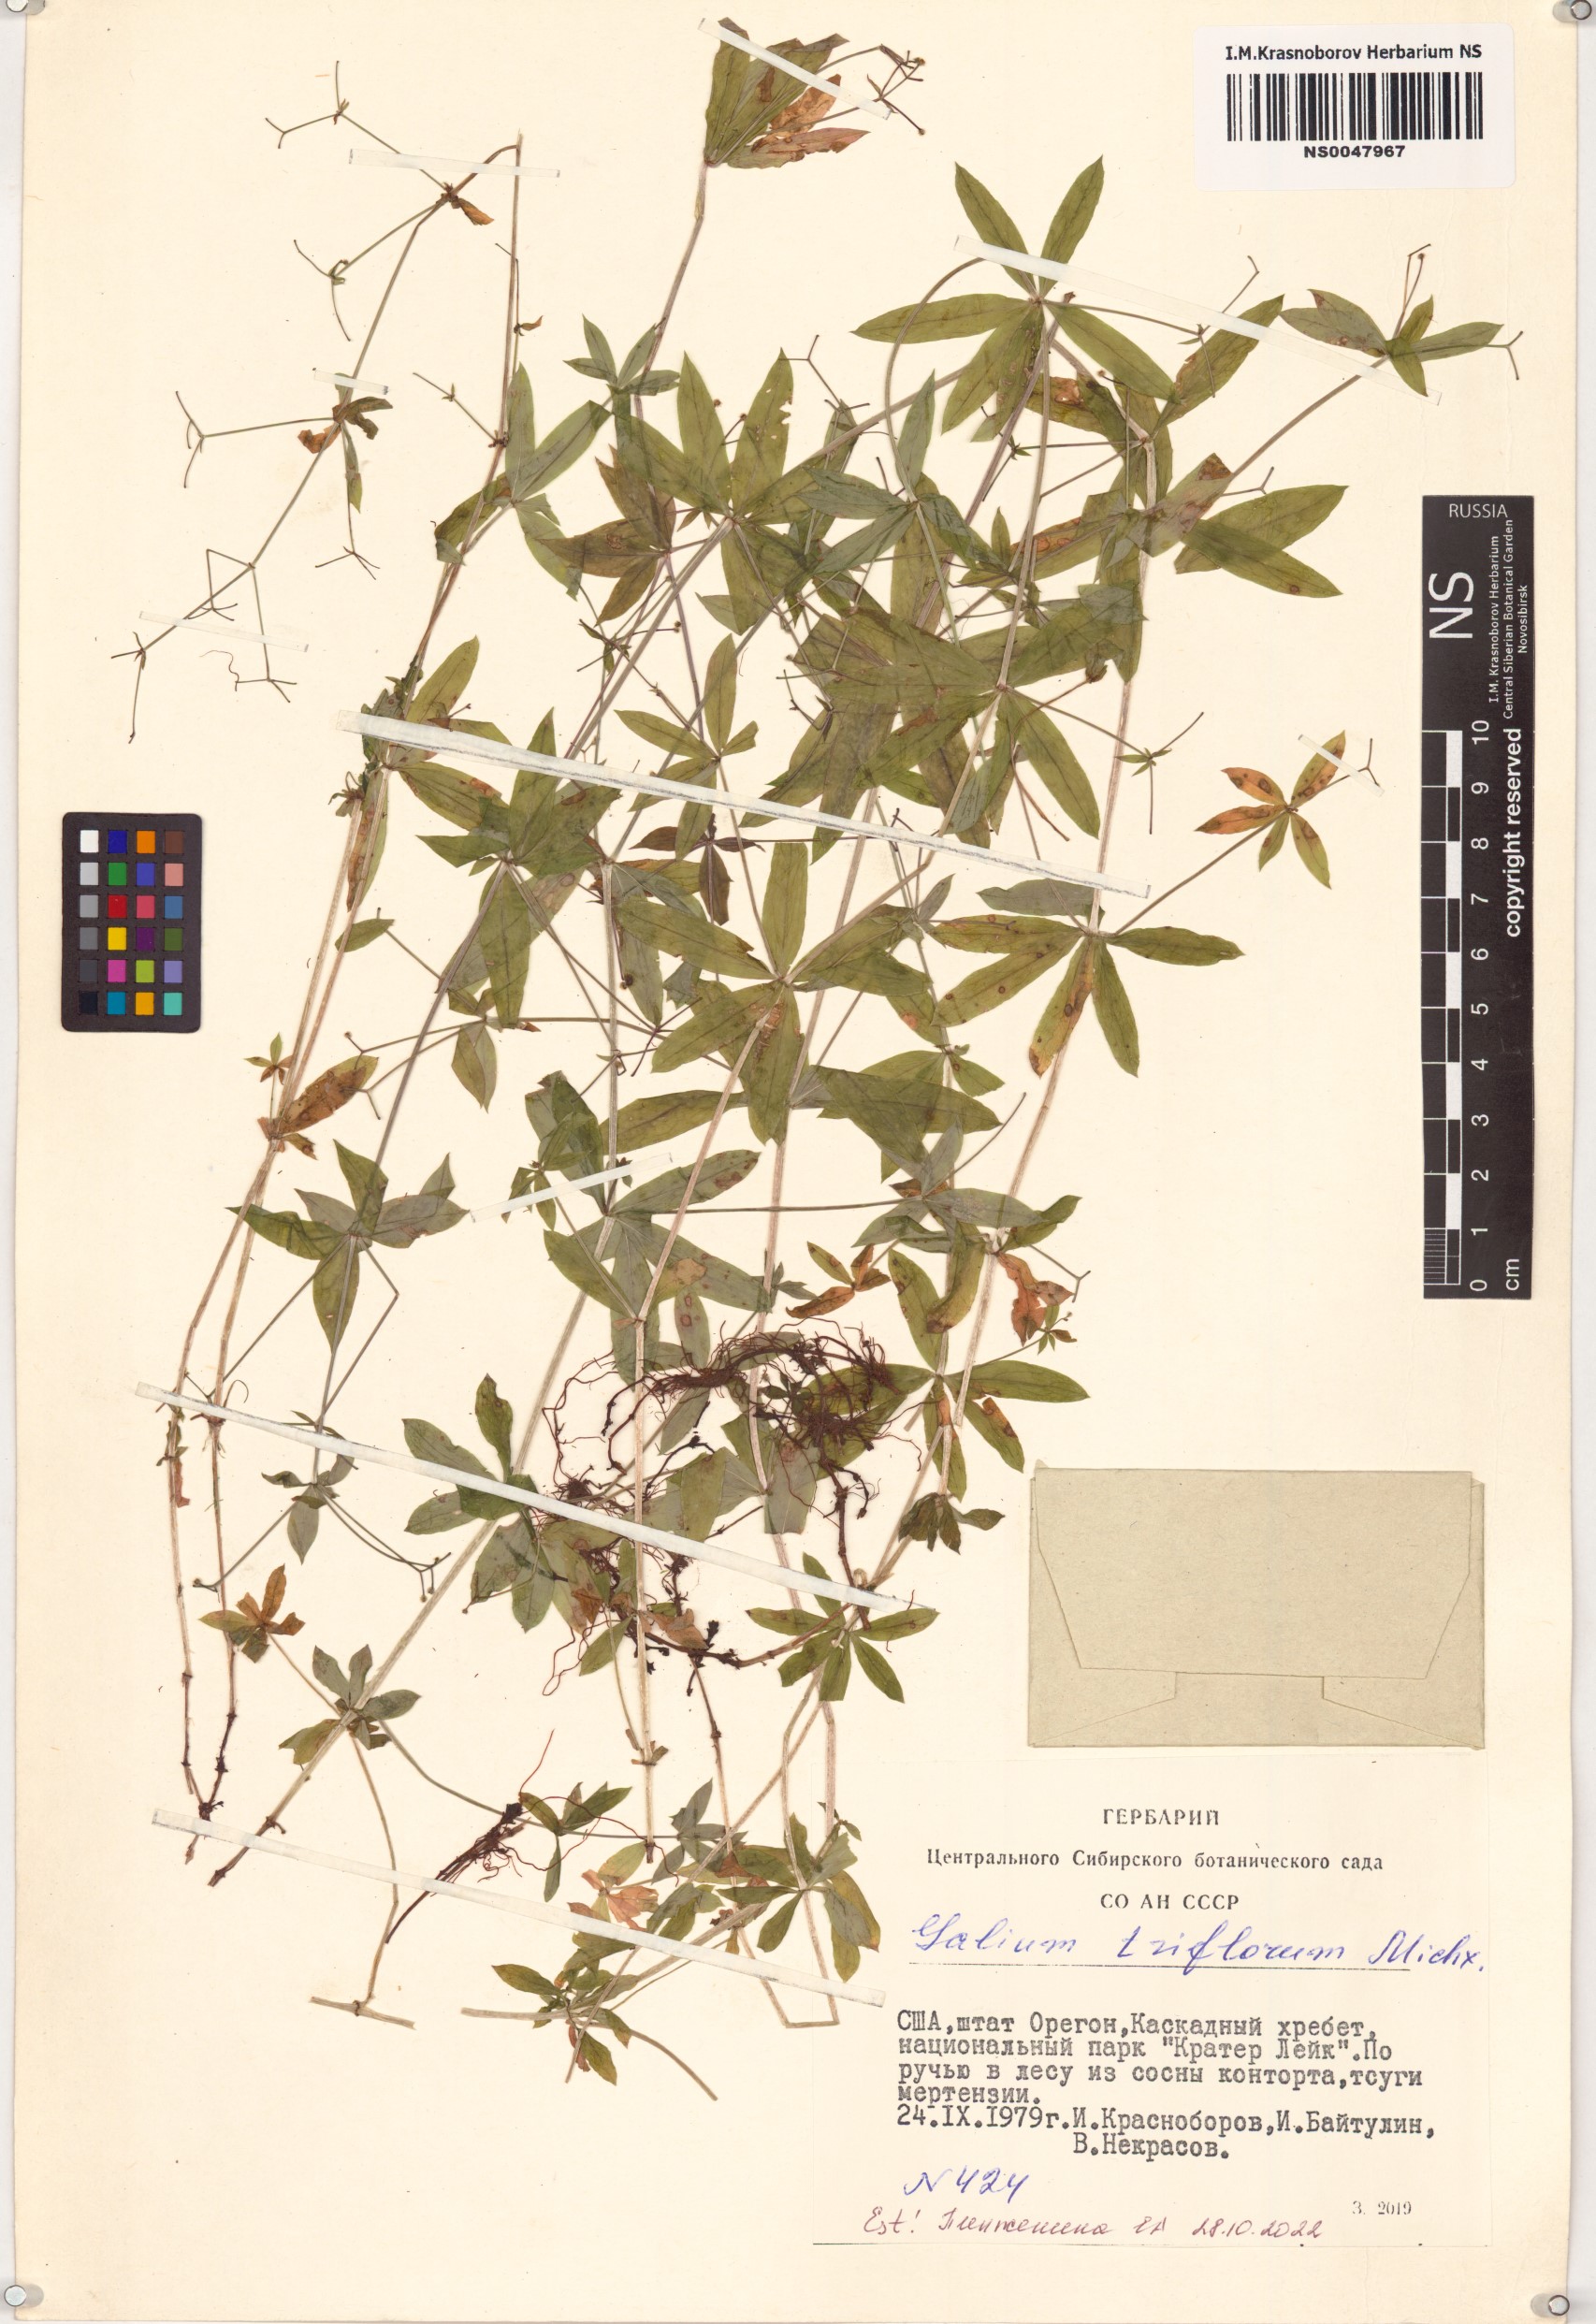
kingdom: Plantae
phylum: Tracheophyta
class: Magnoliopsida
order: Gentianales
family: Rubiaceae
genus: Galium
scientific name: Galium triflorum
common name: Fragrant bedstraw
